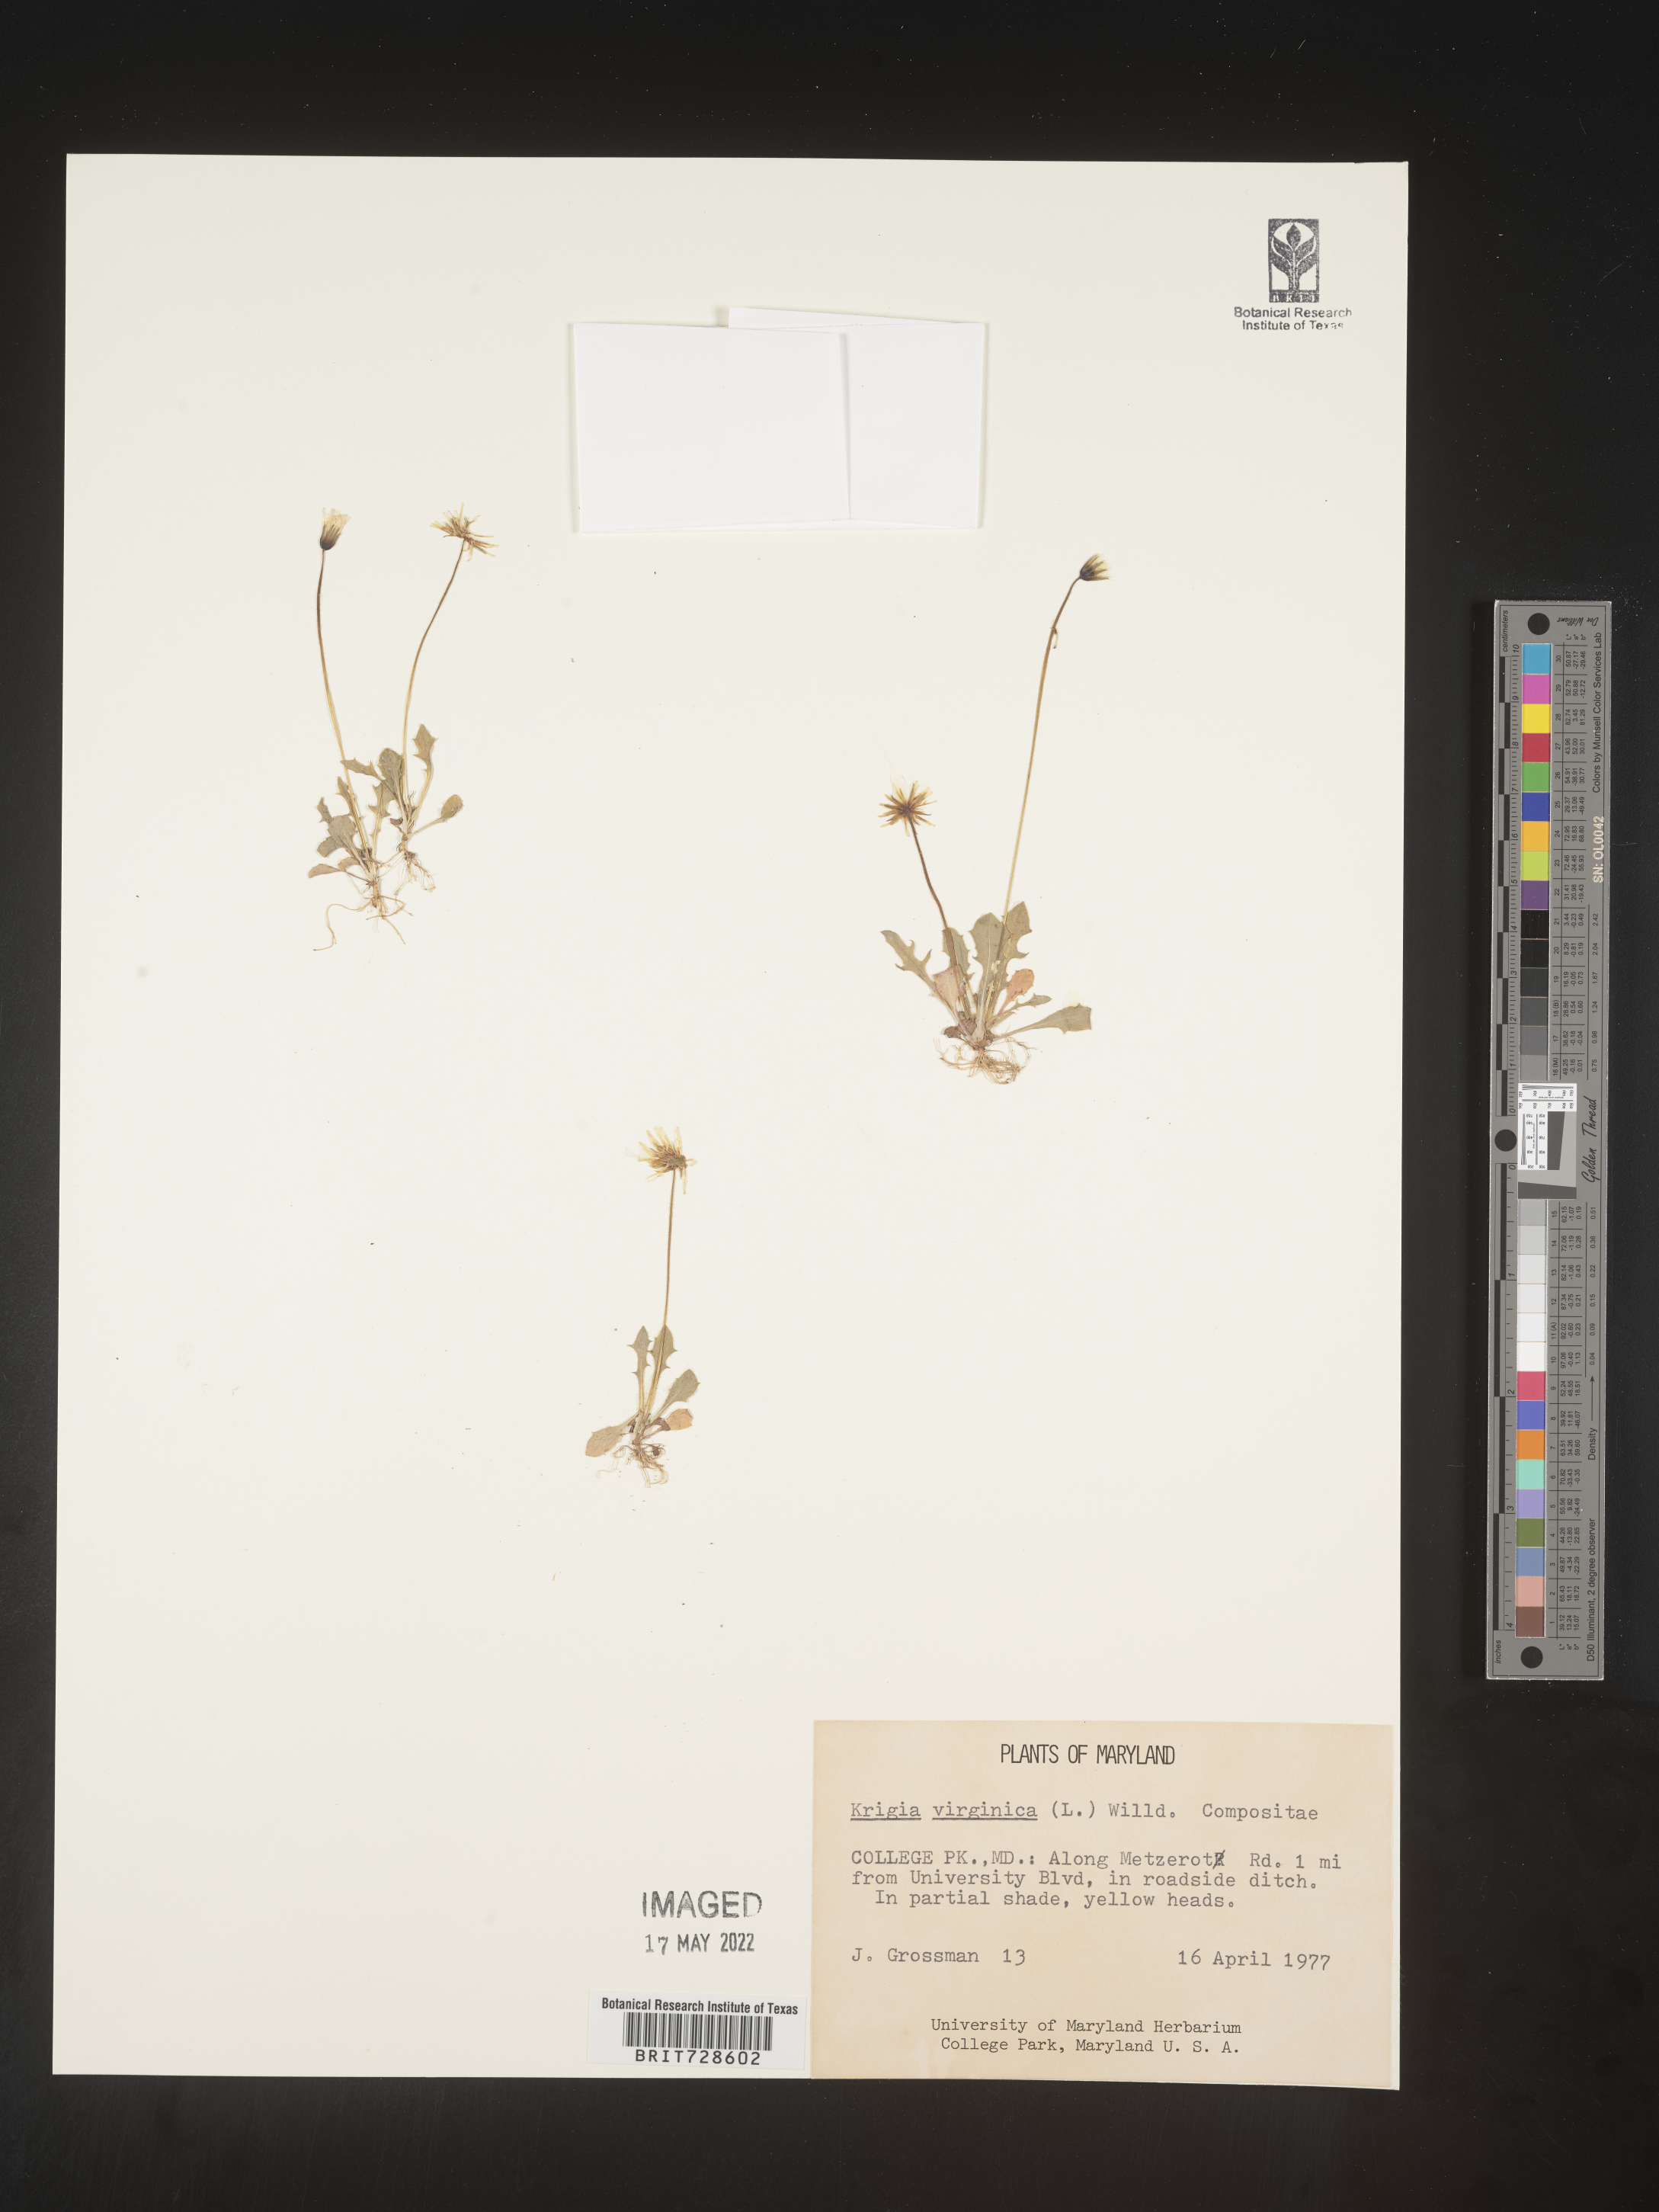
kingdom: Plantae
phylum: Tracheophyta
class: Magnoliopsida
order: Asterales
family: Asteraceae
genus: Krigia
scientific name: Krigia virginica
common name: Virginia dwarf-dandelion
